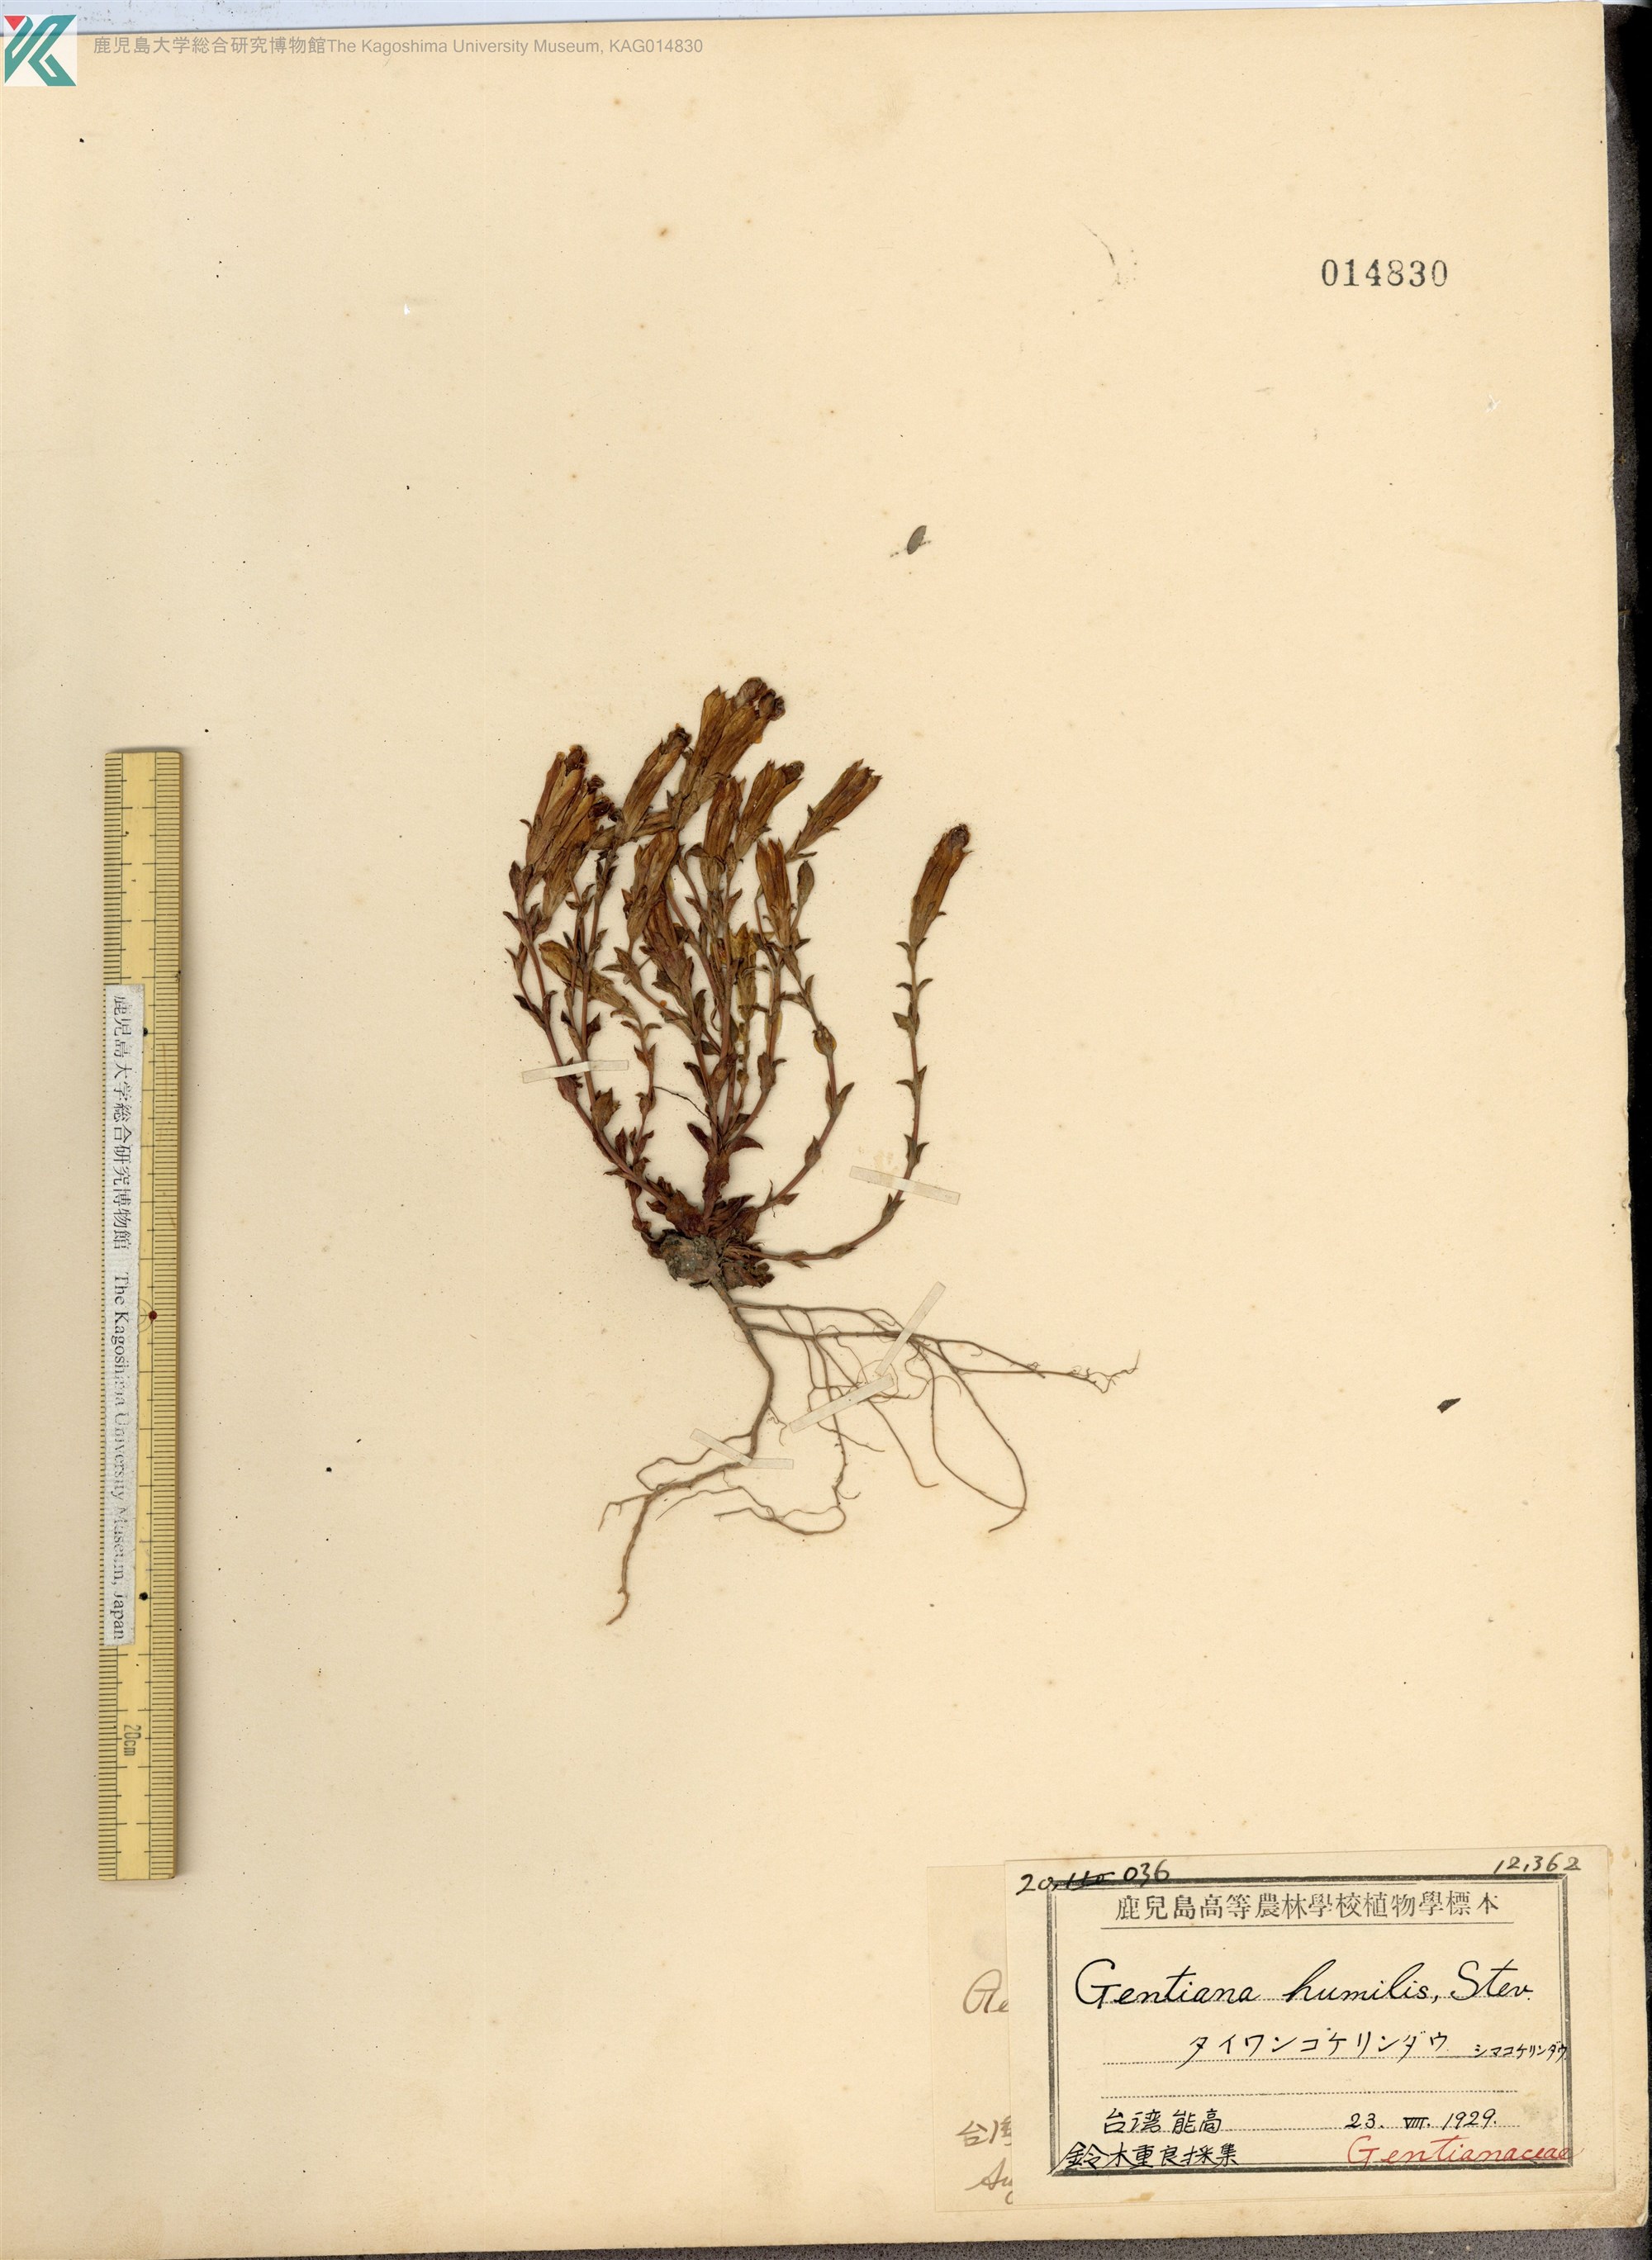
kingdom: Plantae
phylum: Tracheophyta
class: Magnoliopsida
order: Gentianales
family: Gentianaceae
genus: Gentiana
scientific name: Gentiana aquatica
